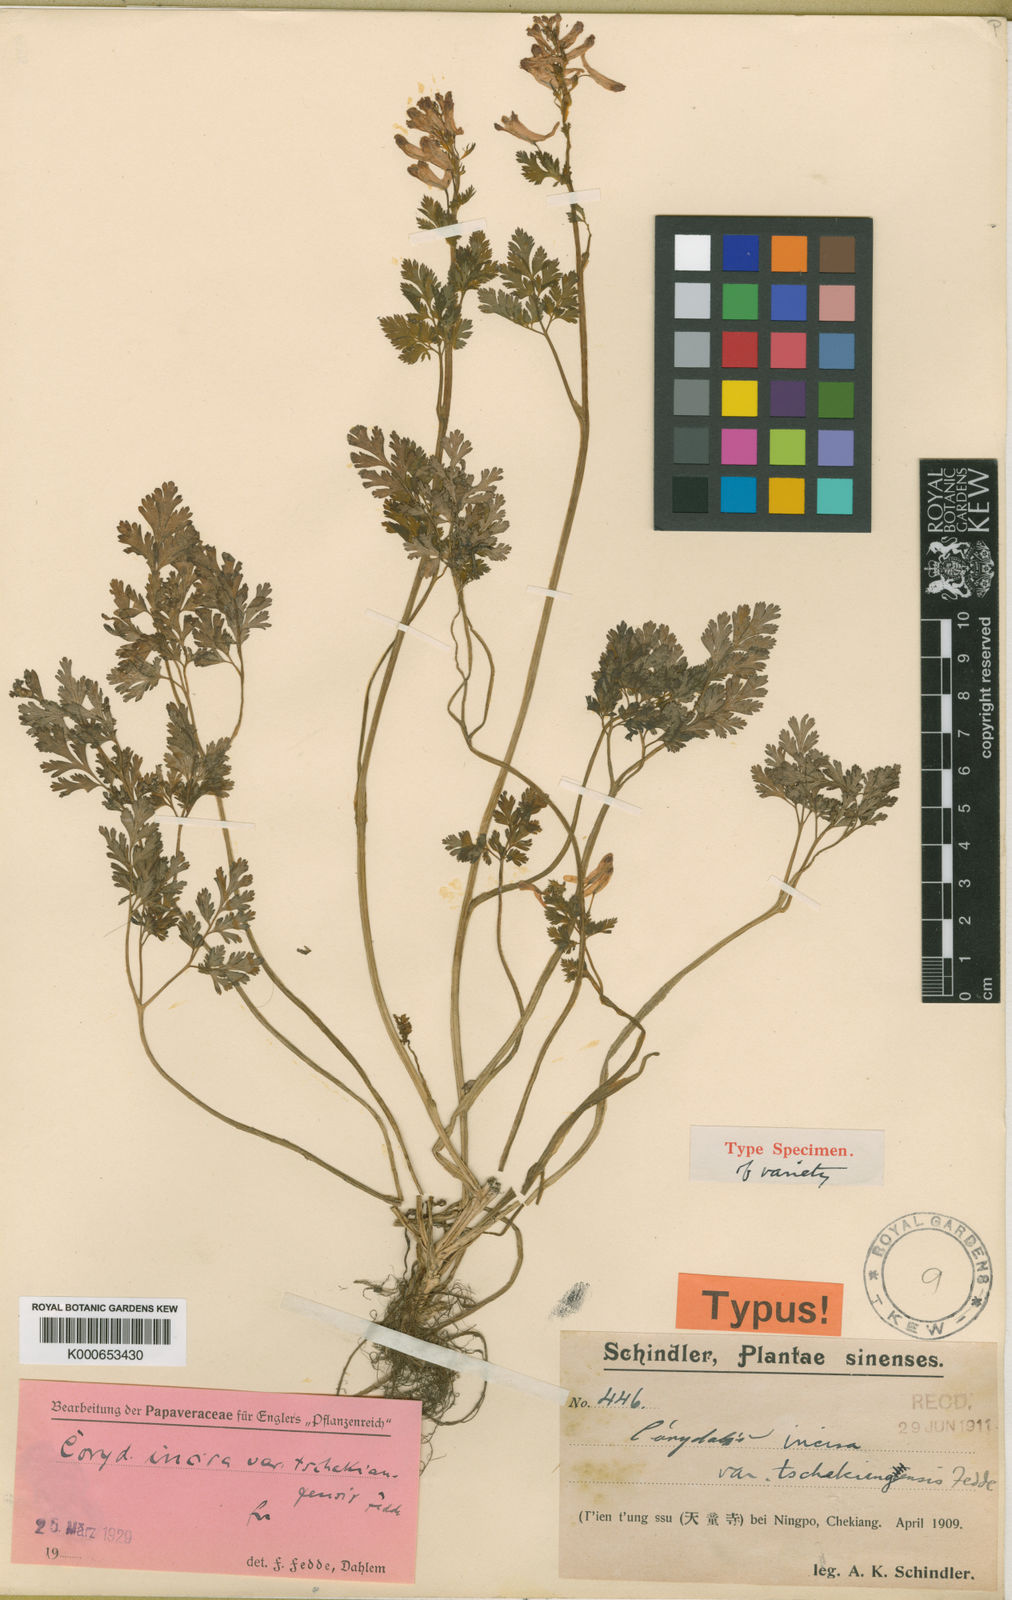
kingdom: Plantae
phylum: Tracheophyta
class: Magnoliopsida
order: Ranunculales
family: Papaveraceae
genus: Corydalis
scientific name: Corydalis incisa
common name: Incised fumewort
